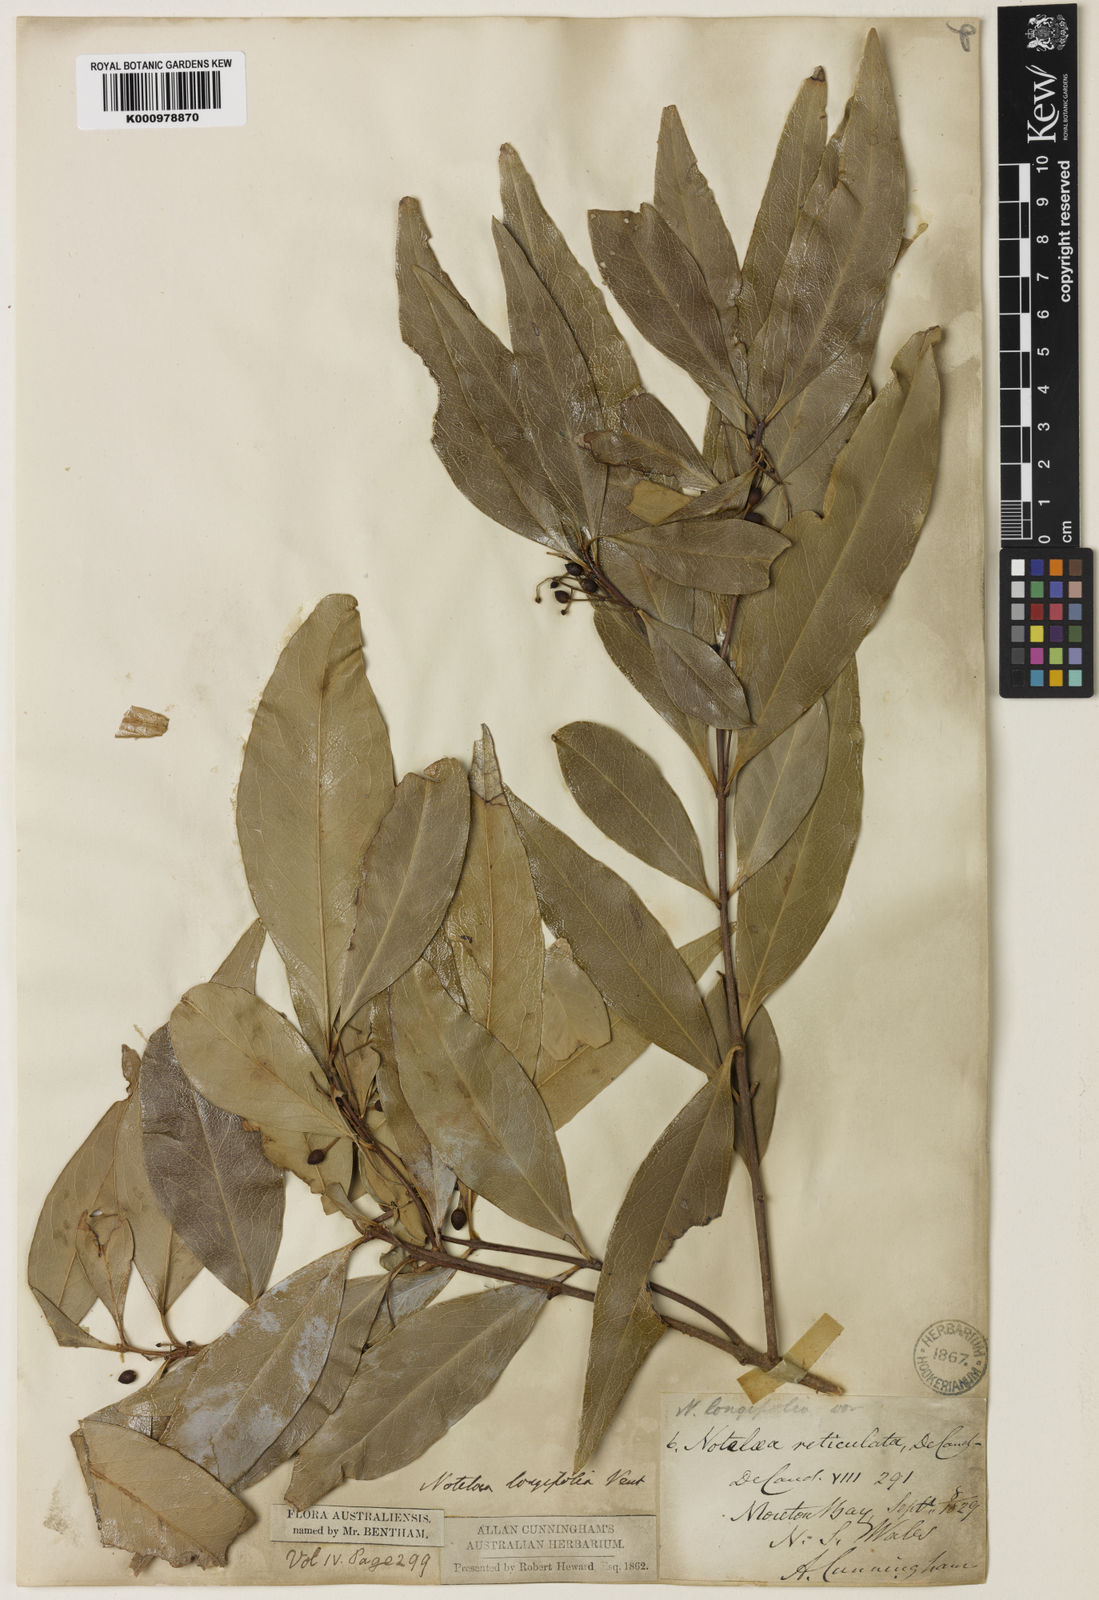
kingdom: Plantae
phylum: Tracheophyta
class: Magnoliopsida
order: Lamiales
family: Oleaceae
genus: Notelaea
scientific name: Notelaea longifolia
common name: Large mock olive
